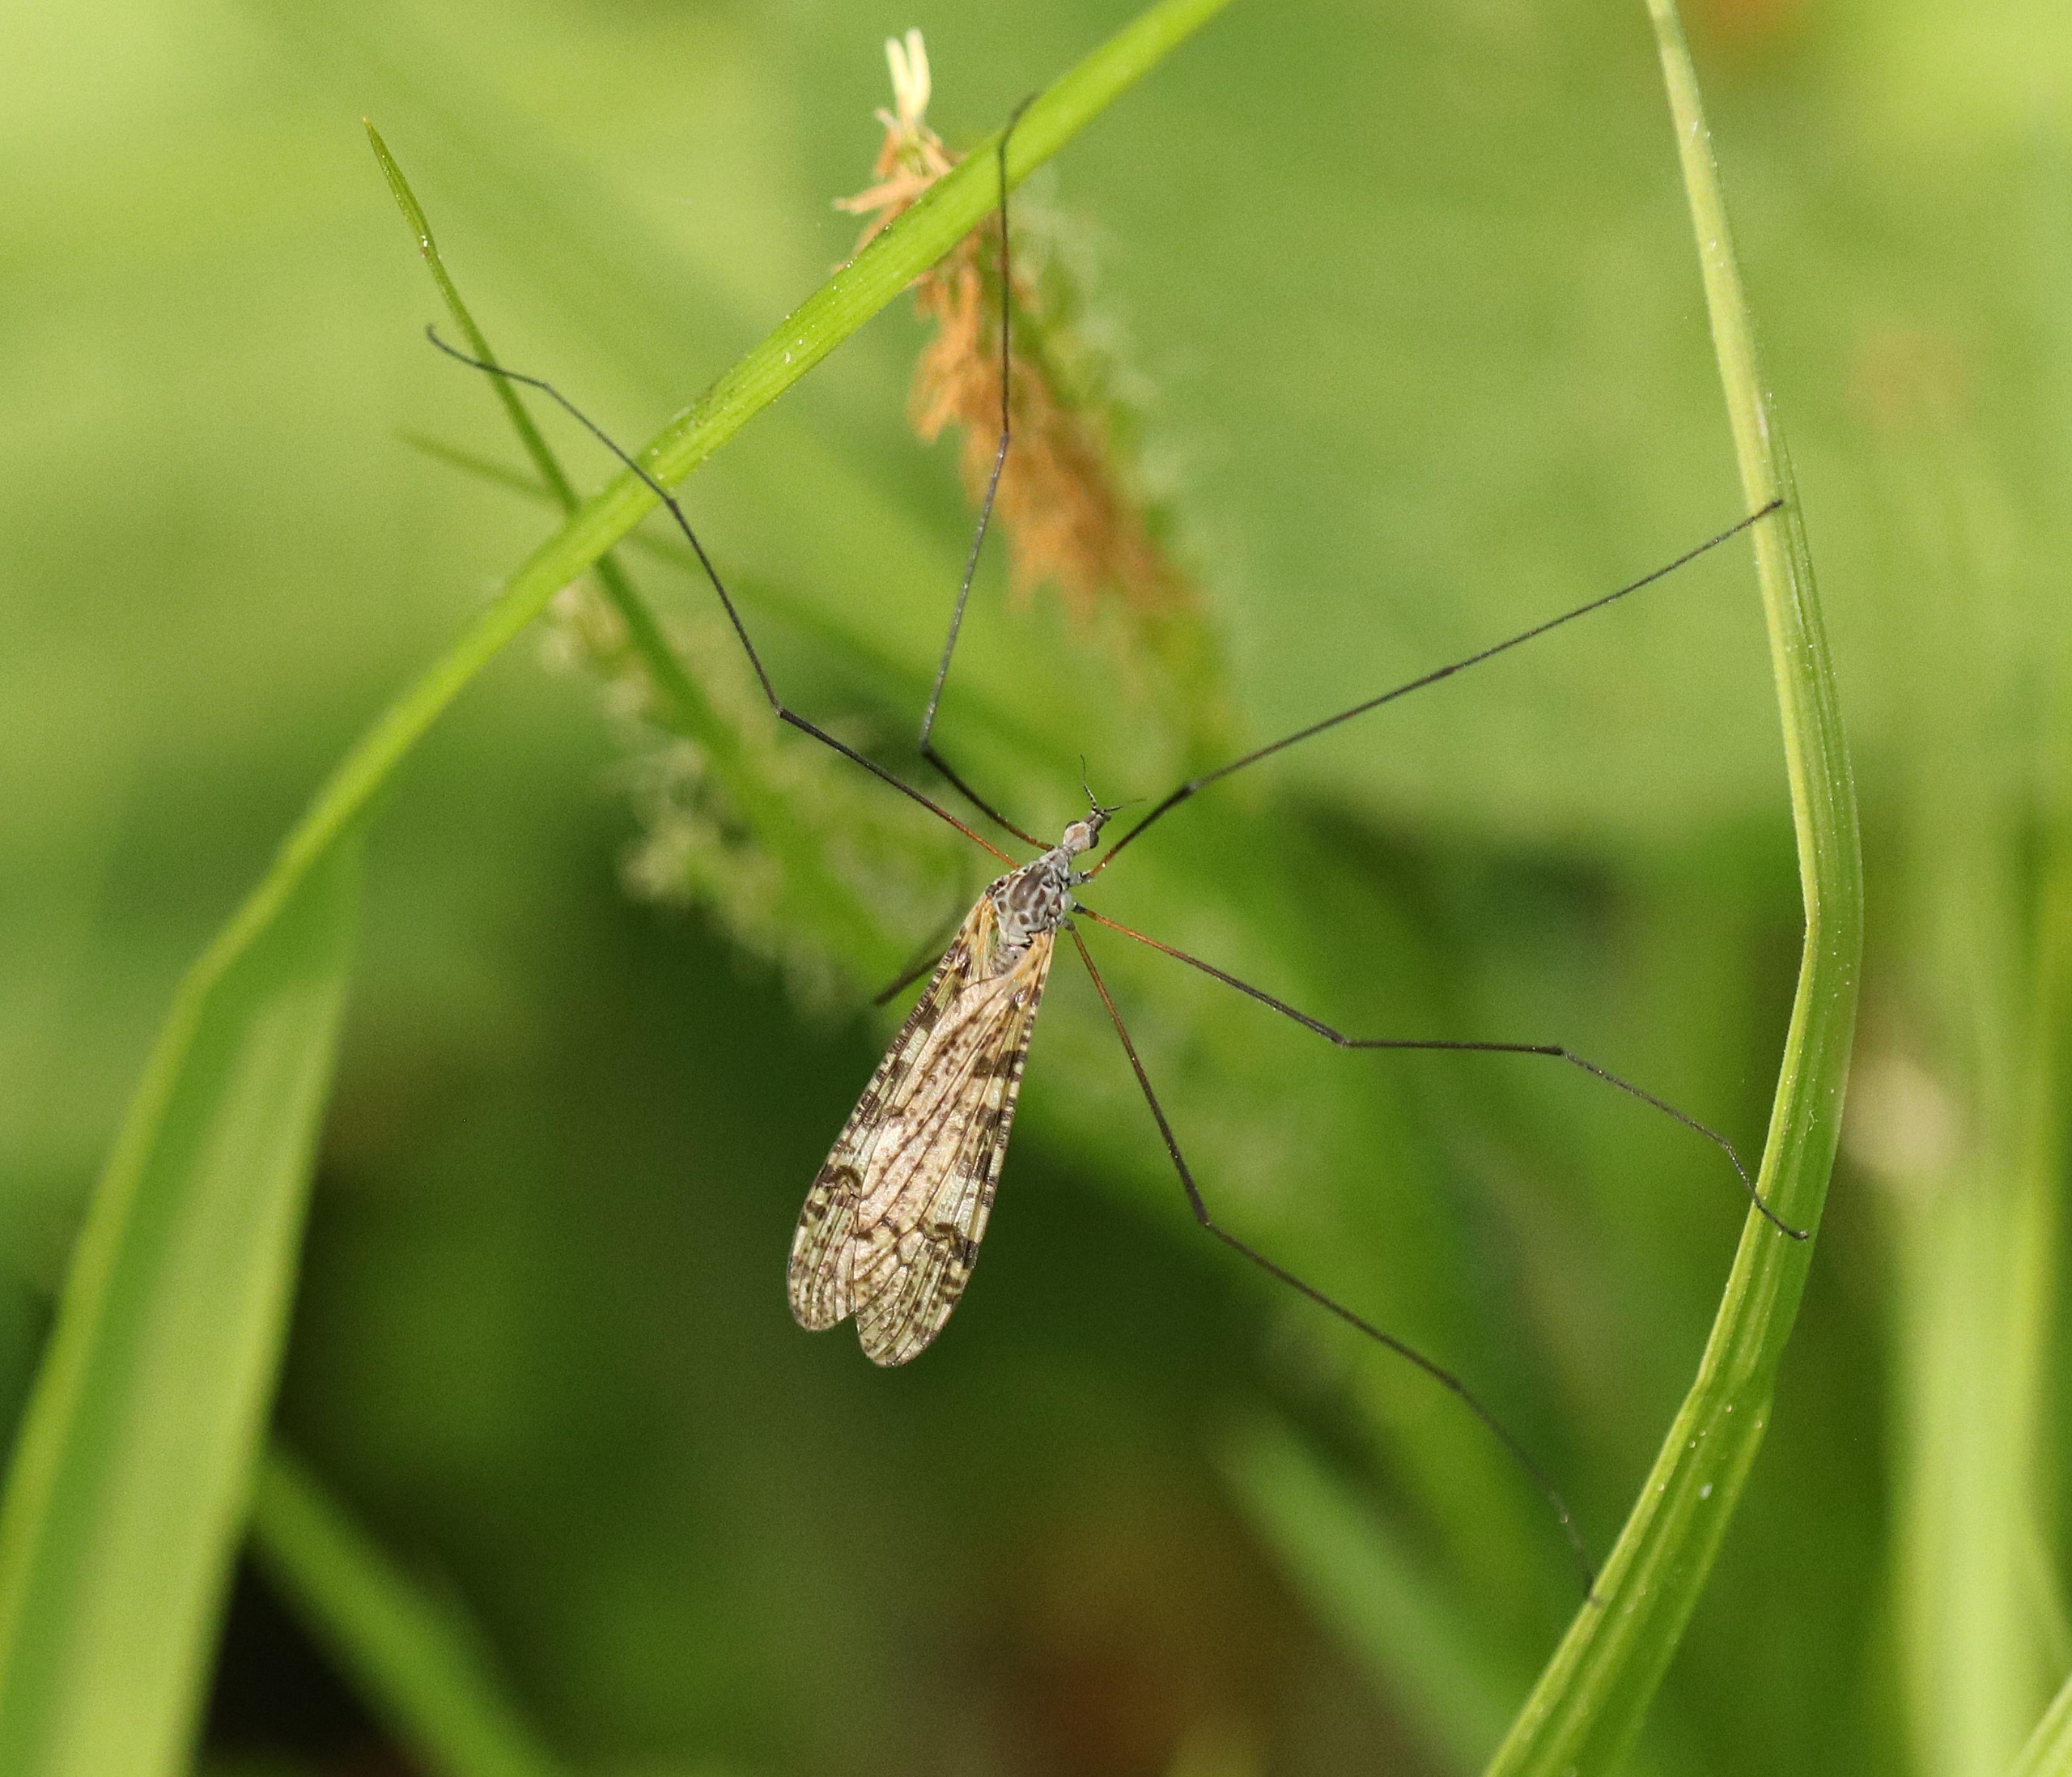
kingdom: Animalia
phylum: Arthropoda
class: Insecta
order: Diptera
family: Limoniidae
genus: Limnophila
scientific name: Limnophila schranki
